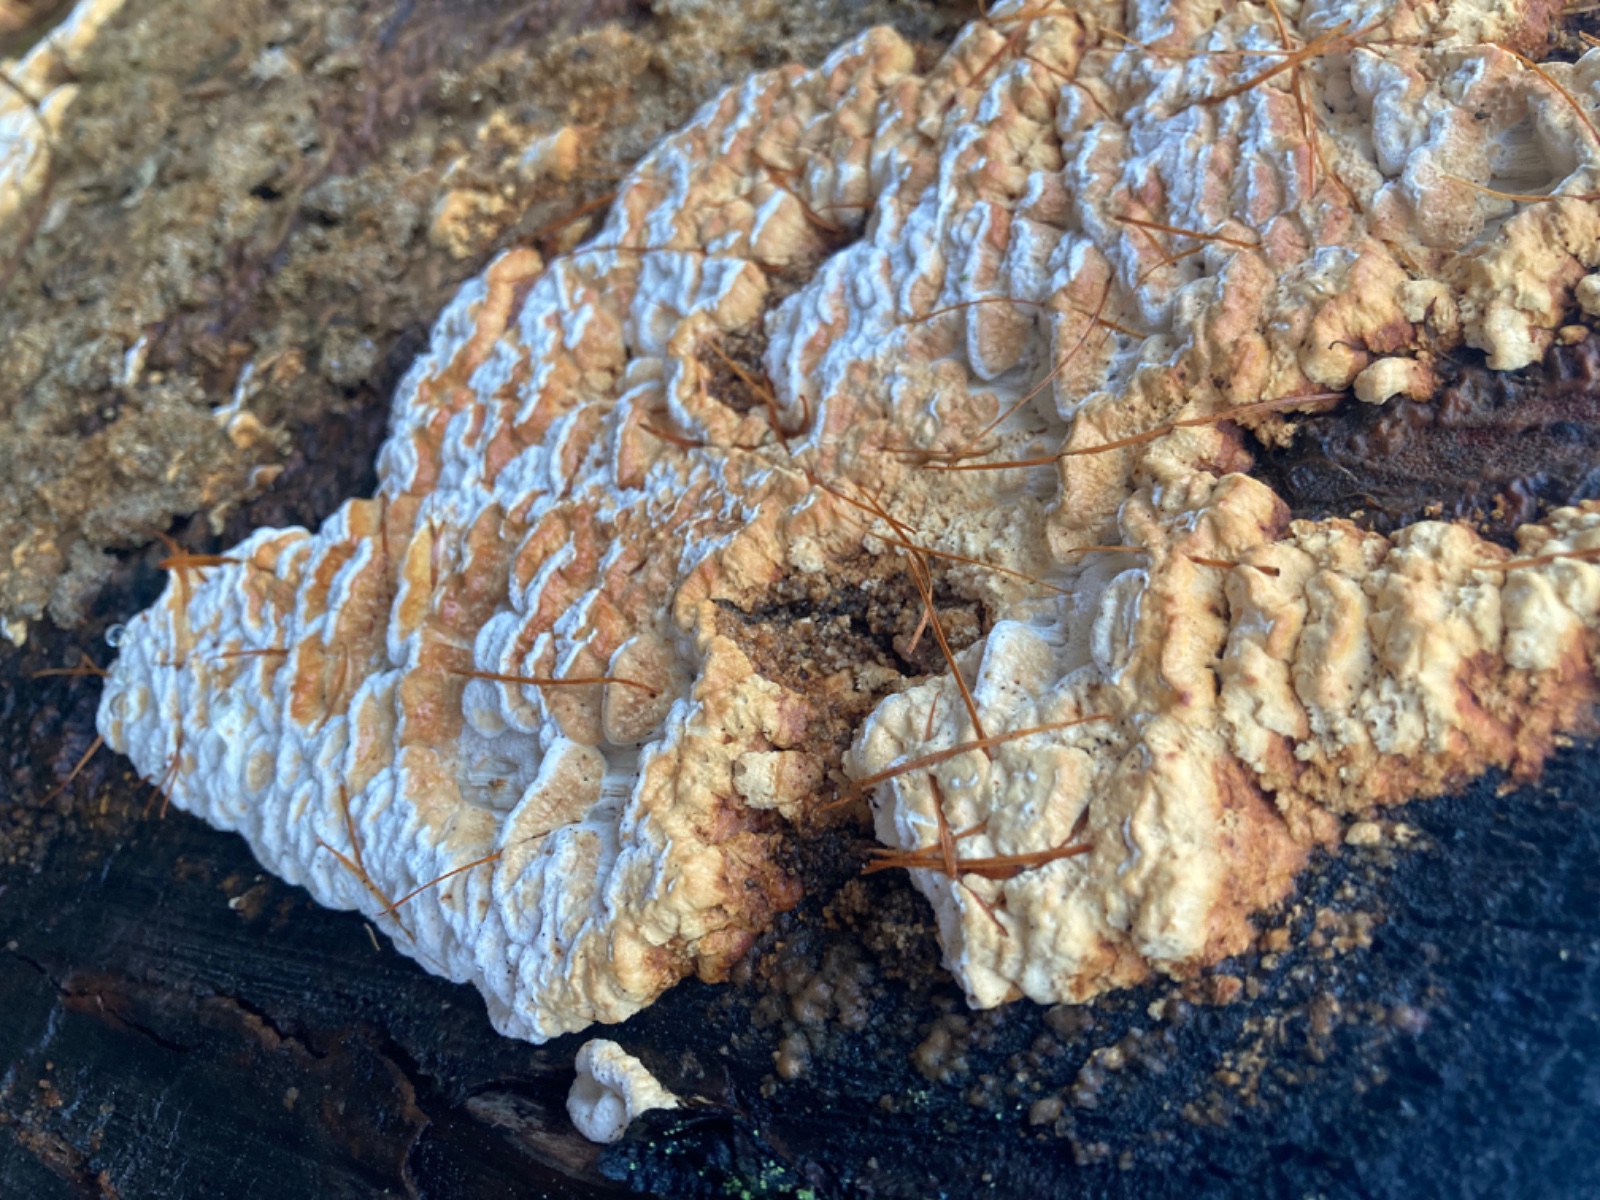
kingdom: Fungi
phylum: Basidiomycota
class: Agaricomycetes
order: Polyporales
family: Fomitopsidaceae
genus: Neoantrodia
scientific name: Neoantrodia serialis
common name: række-sejporesvamp
